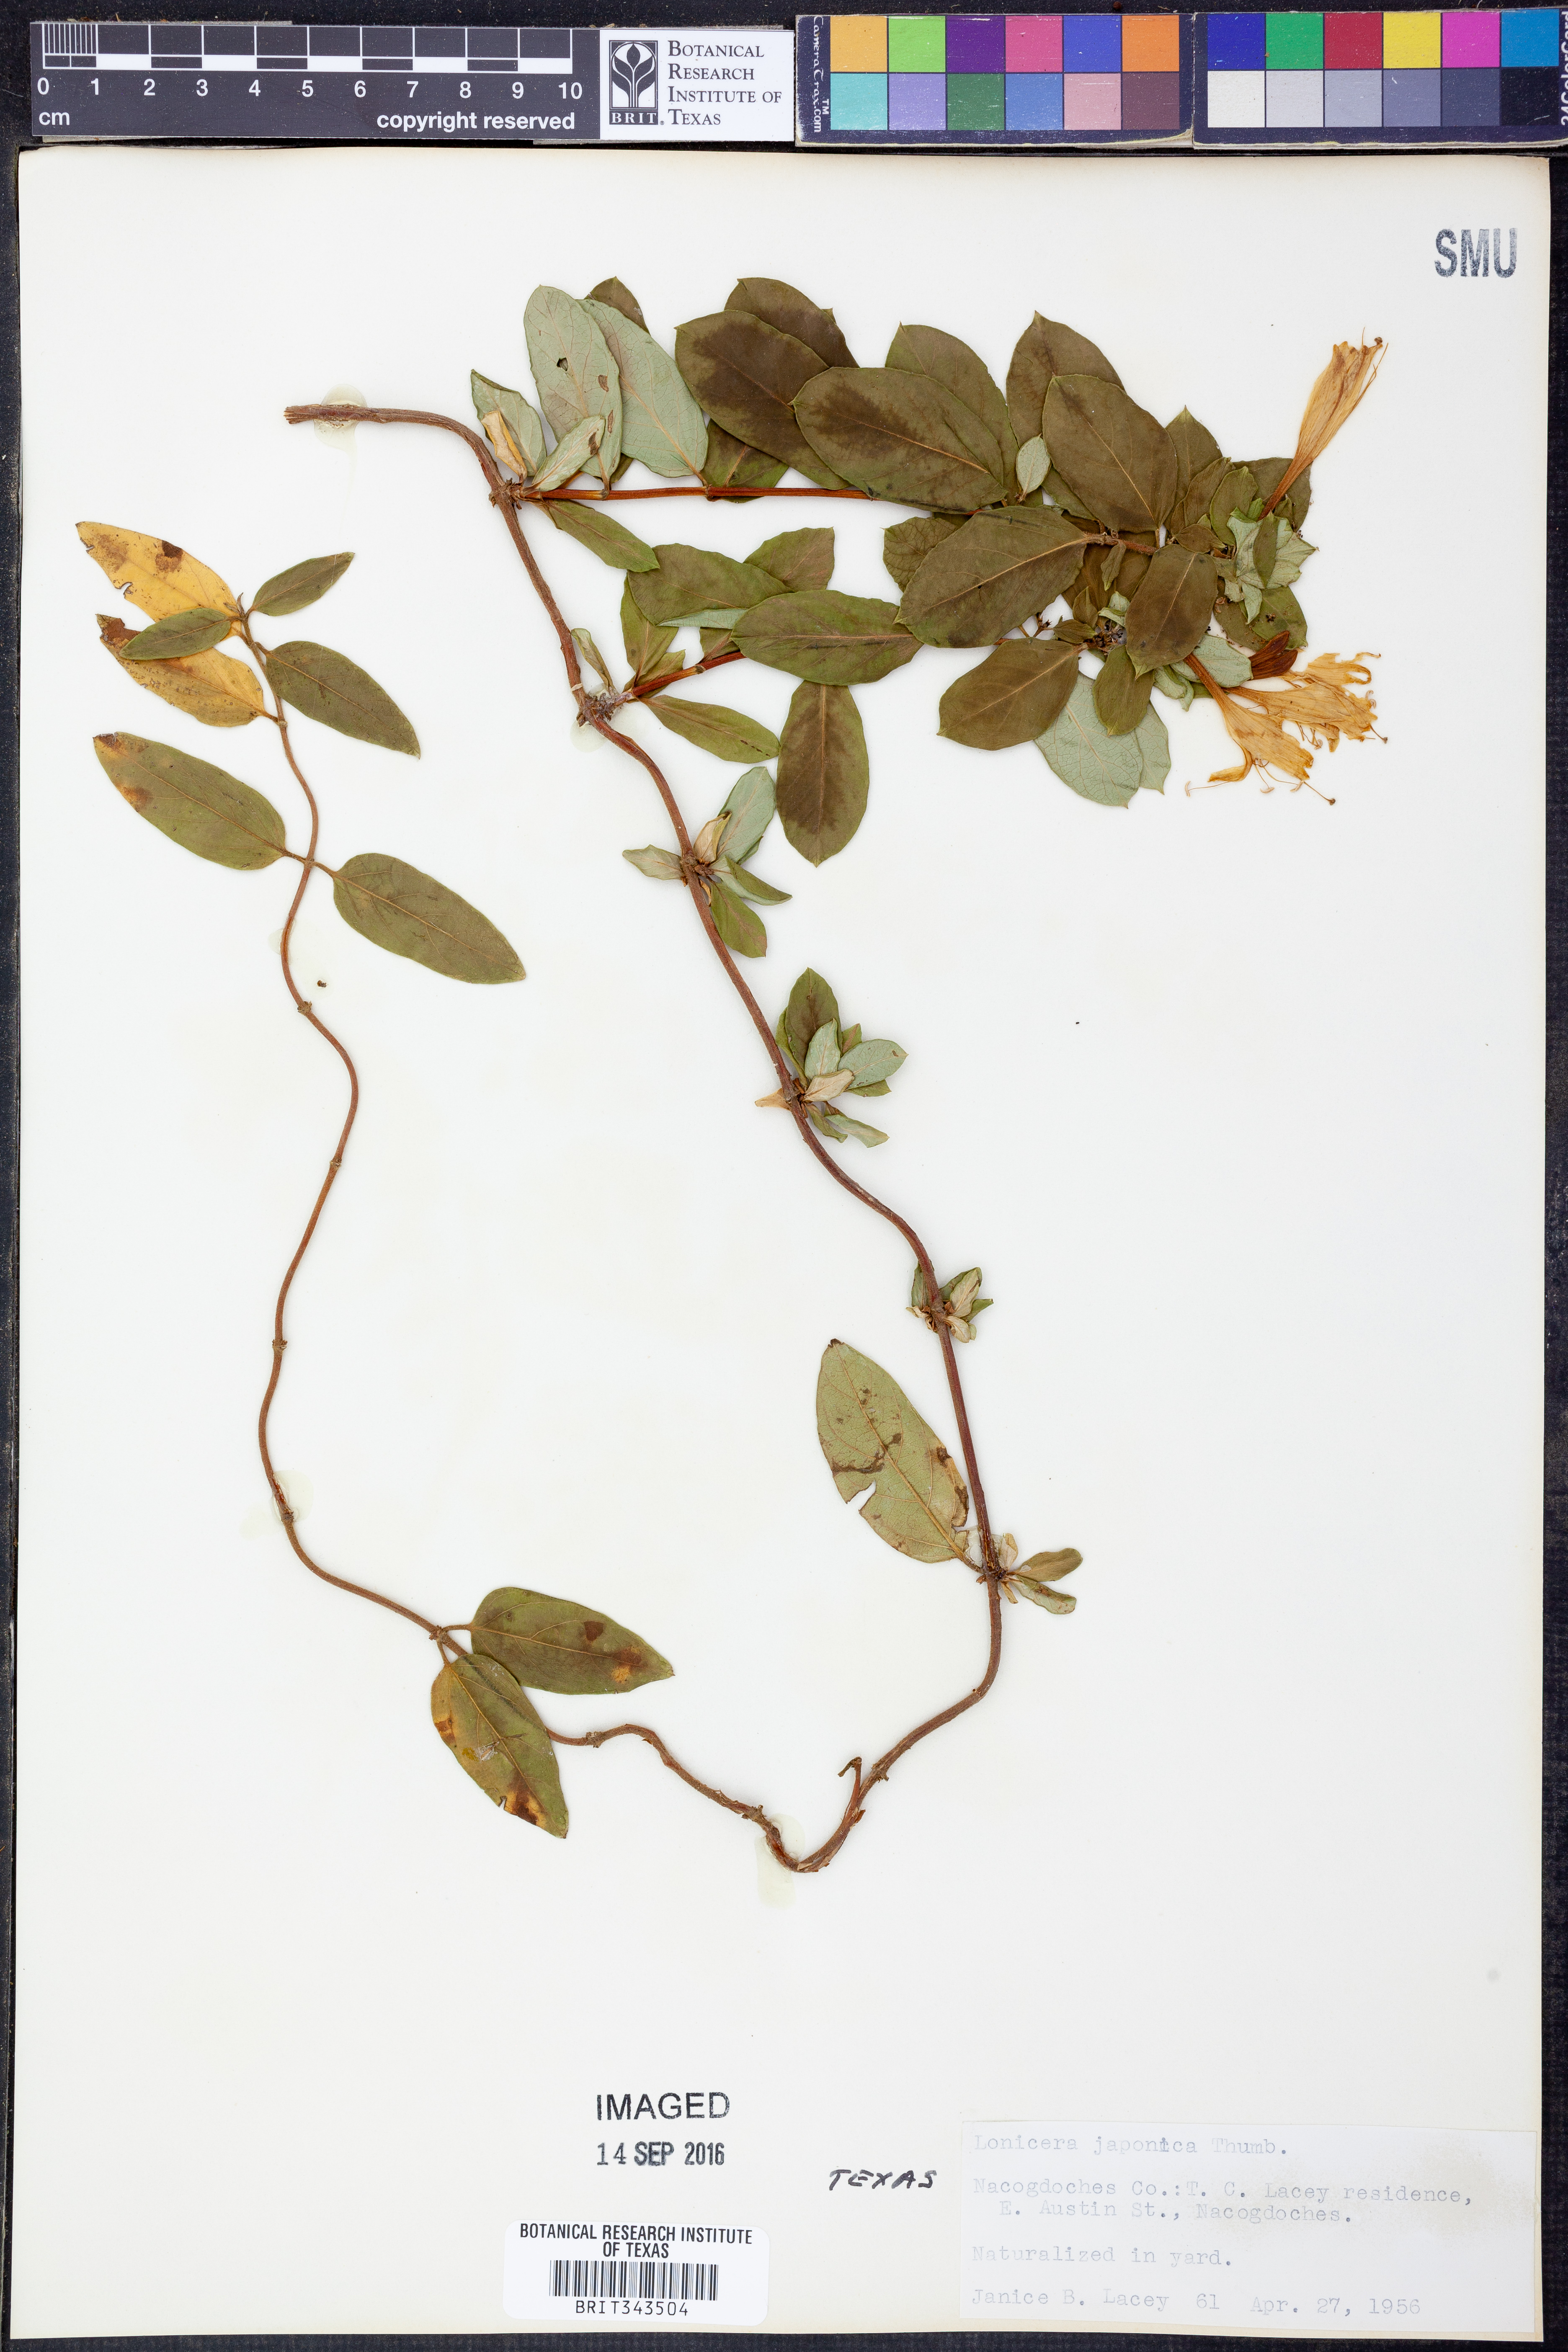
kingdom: Plantae
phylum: Tracheophyta
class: Magnoliopsida
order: Dipsacales
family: Caprifoliaceae
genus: Lonicera
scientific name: Lonicera japonica
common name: Japanese honeysuckle
